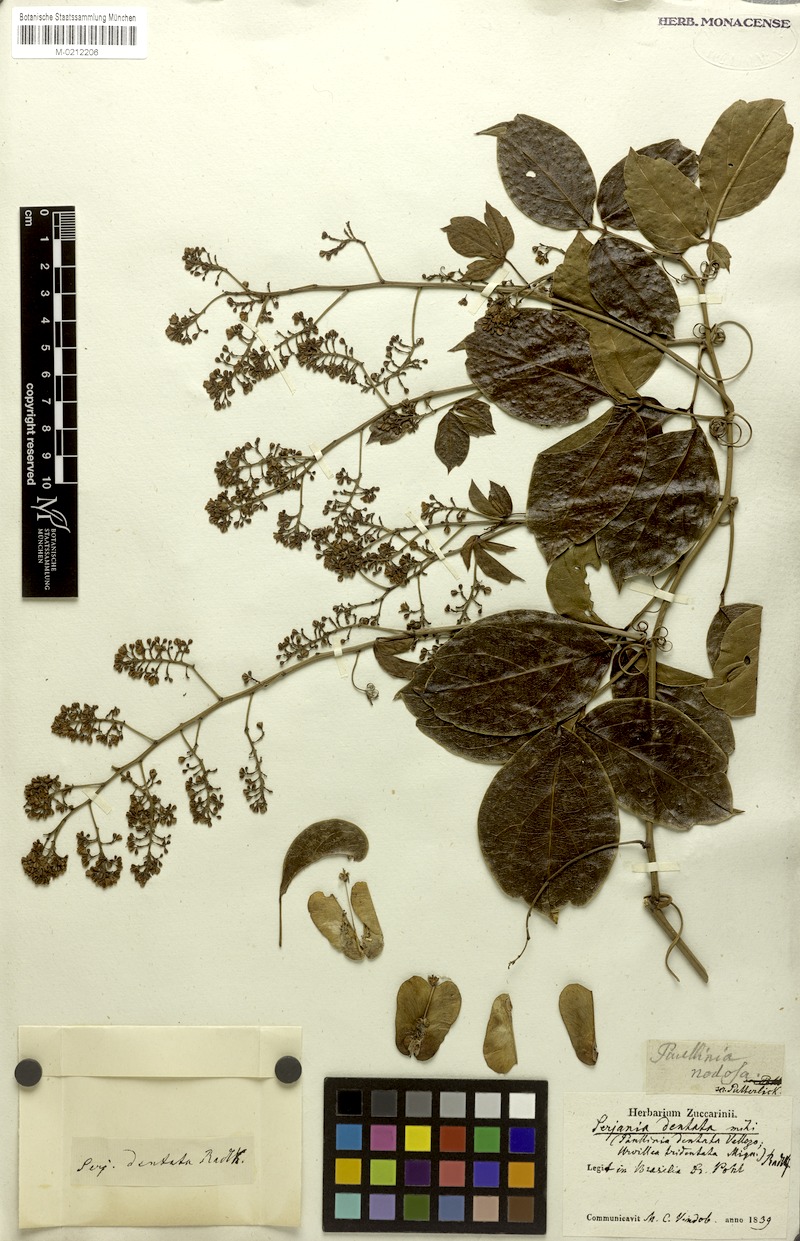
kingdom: Plantae
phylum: Tracheophyta
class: Magnoliopsida
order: Sapindales
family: Sapindaceae
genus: Serjania
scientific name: Serjania dentata
